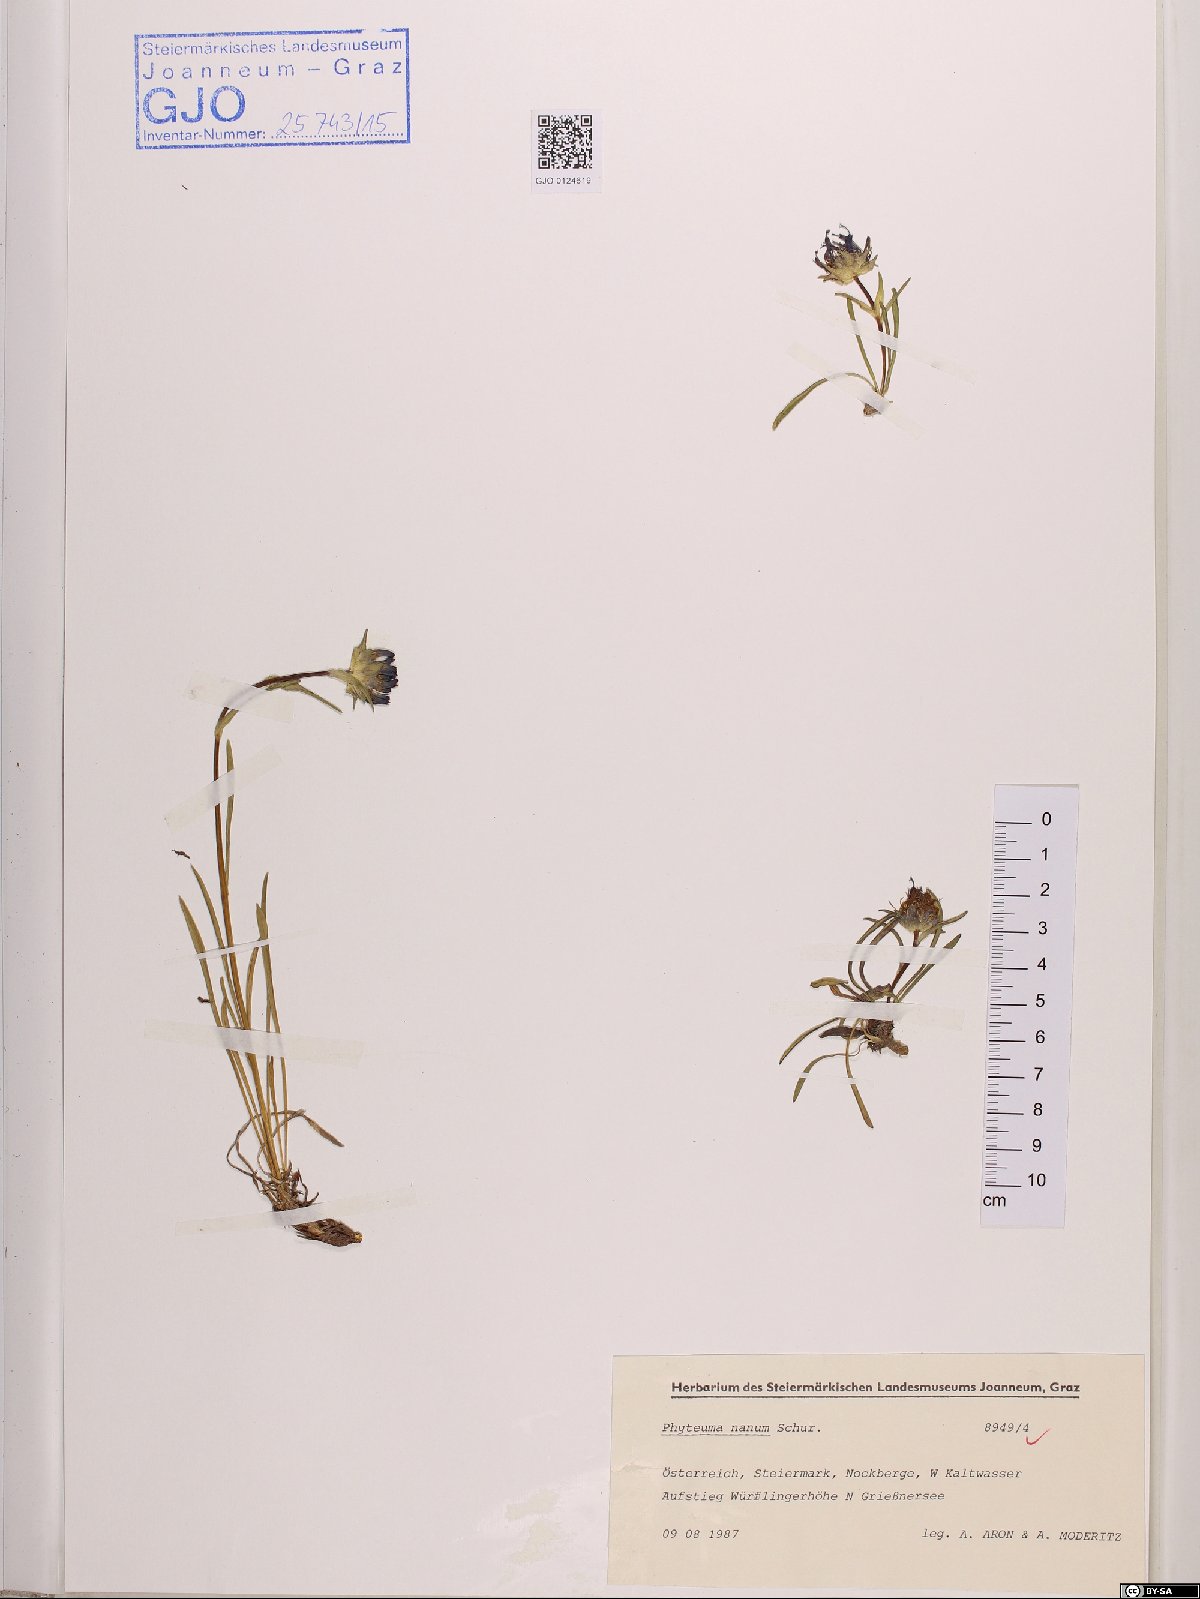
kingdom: Plantae
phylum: Tracheophyta
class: Magnoliopsida
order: Asterales
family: Campanulaceae
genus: Phyteuma
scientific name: Phyteuma globulariifolium
